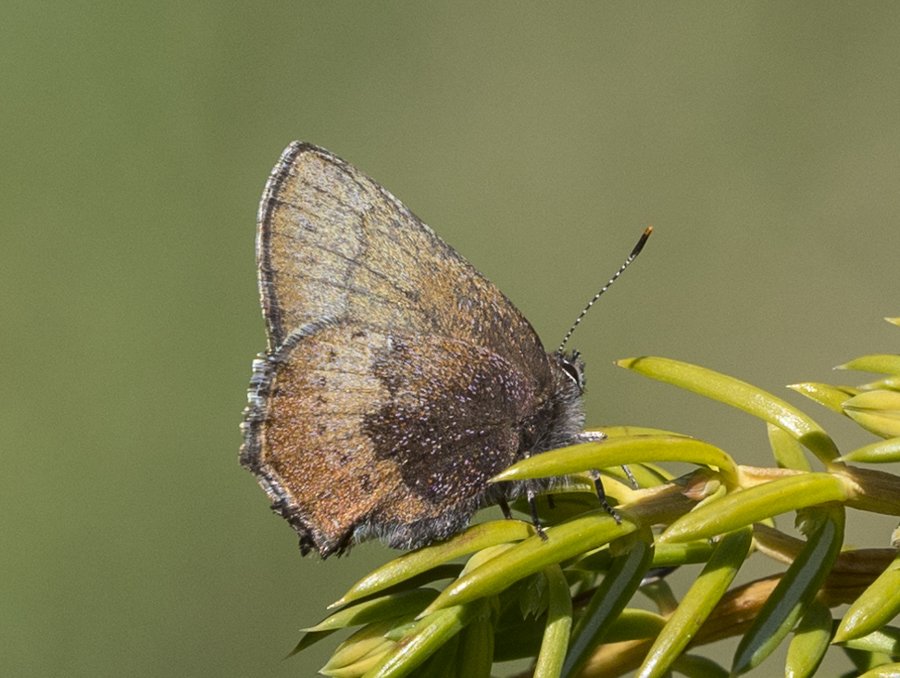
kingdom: Animalia
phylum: Arthropoda
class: Insecta
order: Lepidoptera
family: Lycaenidae
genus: Incisalia
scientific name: Incisalia irioides
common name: Brown Elfin
